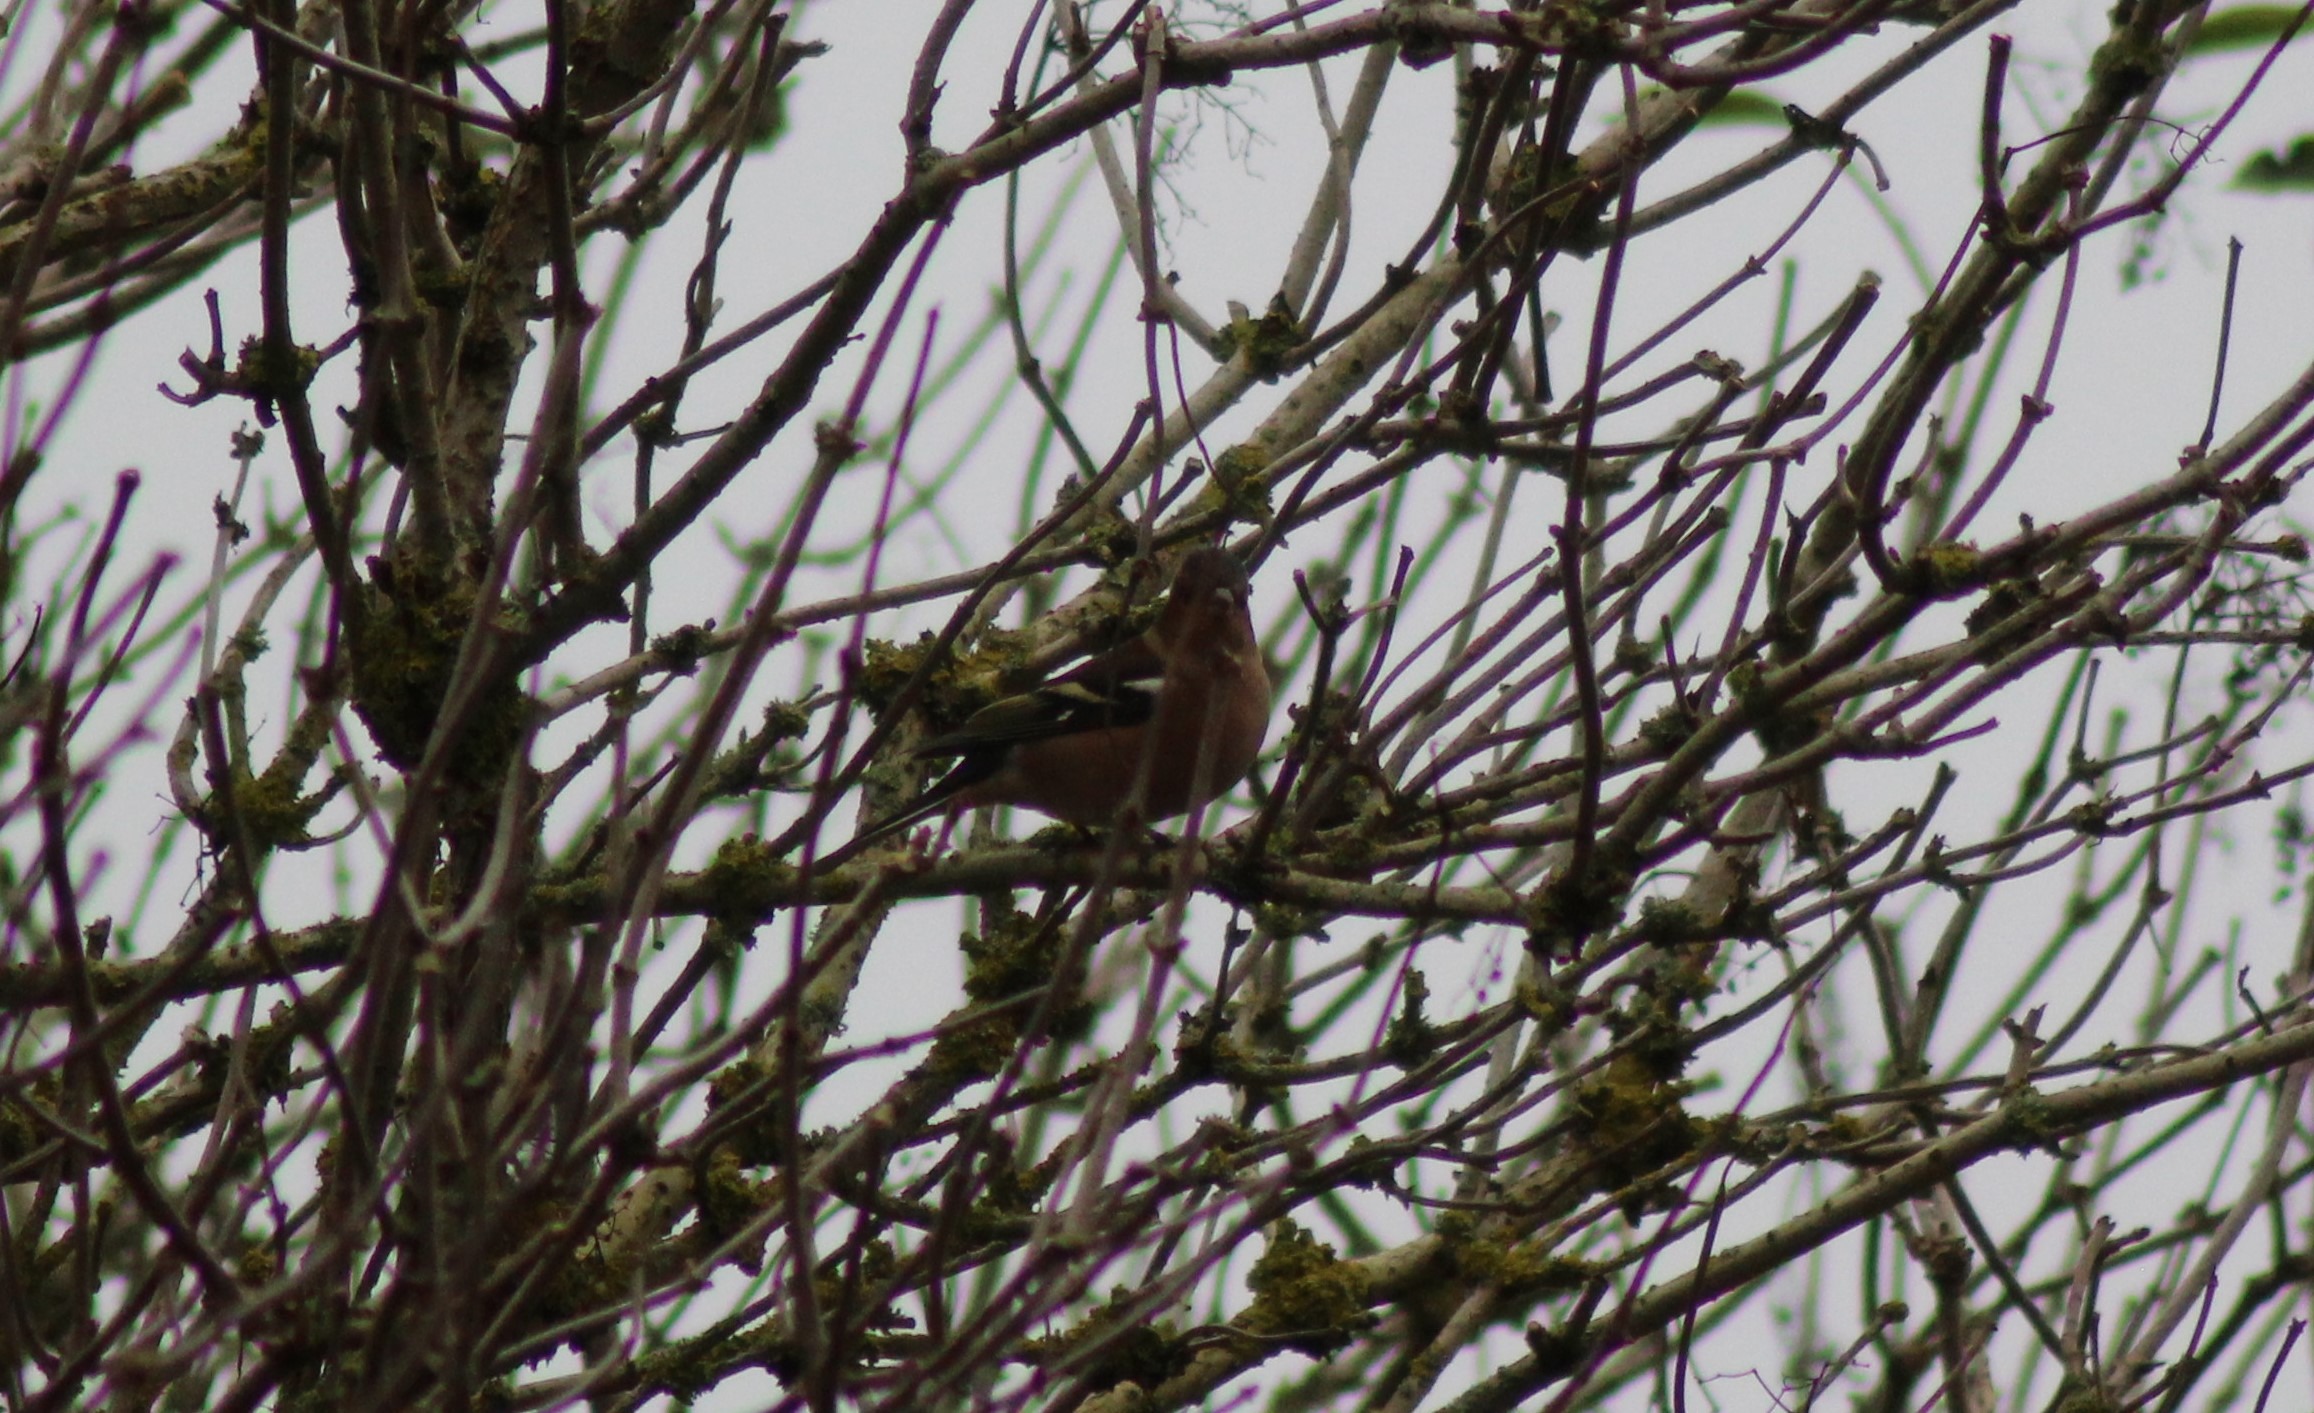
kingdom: Animalia
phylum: Chordata
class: Aves
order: Passeriformes
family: Fringillidae
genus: Fringilla
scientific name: Fringilla coelebs
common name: Bogfinke
